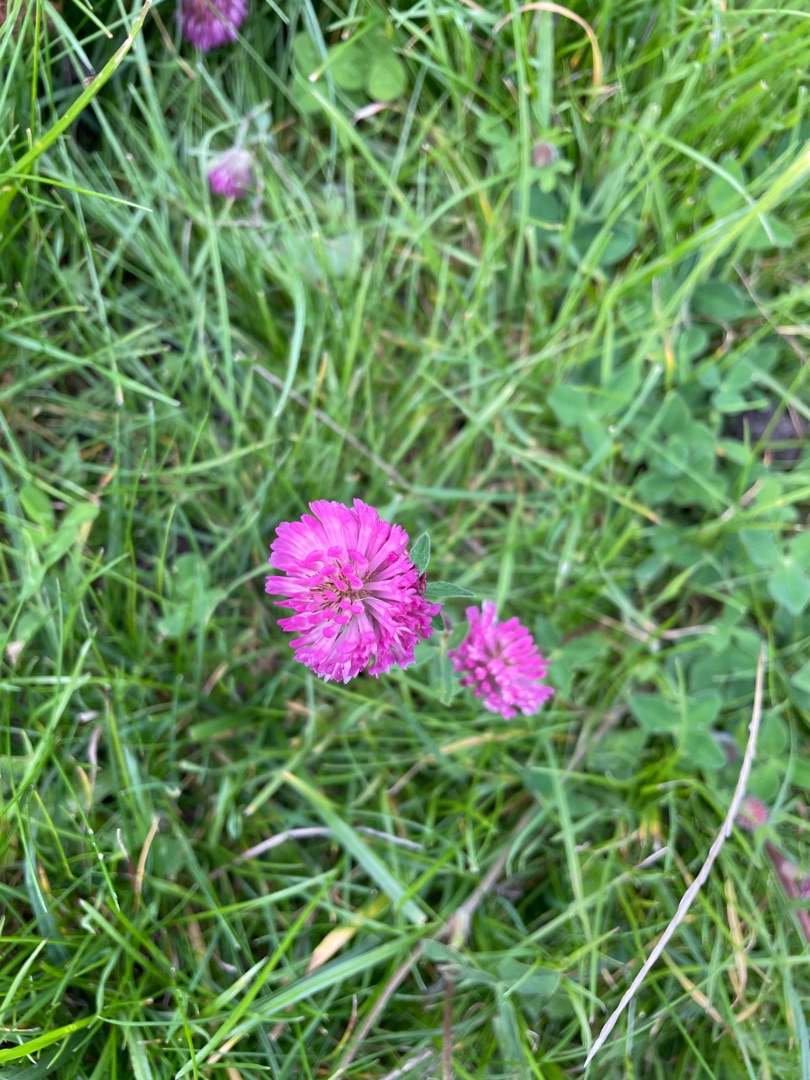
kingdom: Plantae
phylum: Tracheophyta
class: Magnoliopsida
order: Fabales
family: Fabaceae
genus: Trifolium
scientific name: Trifolium pratense
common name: Rød-kløver
